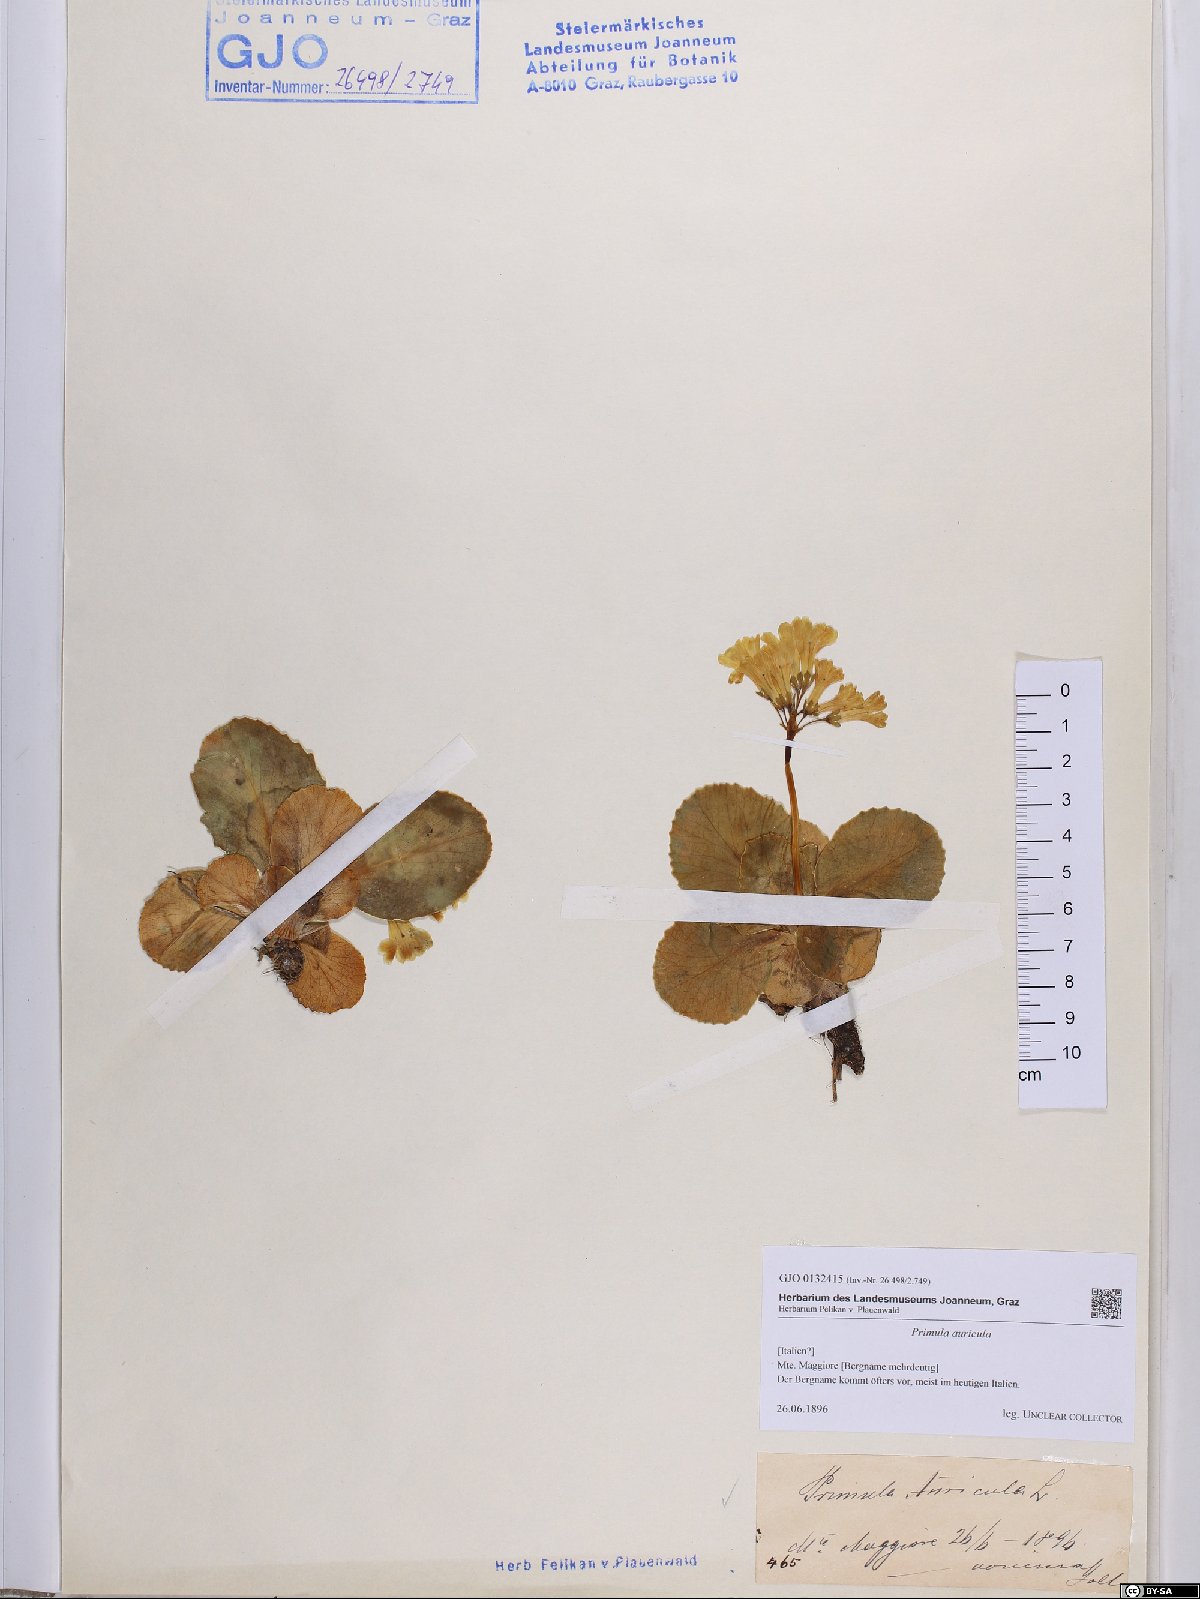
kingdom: Plantae
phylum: Tracheophyta
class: Magnoliopsida
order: Ericales
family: Primulaceae
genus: Primula
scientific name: Primula auricula
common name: Auricula
